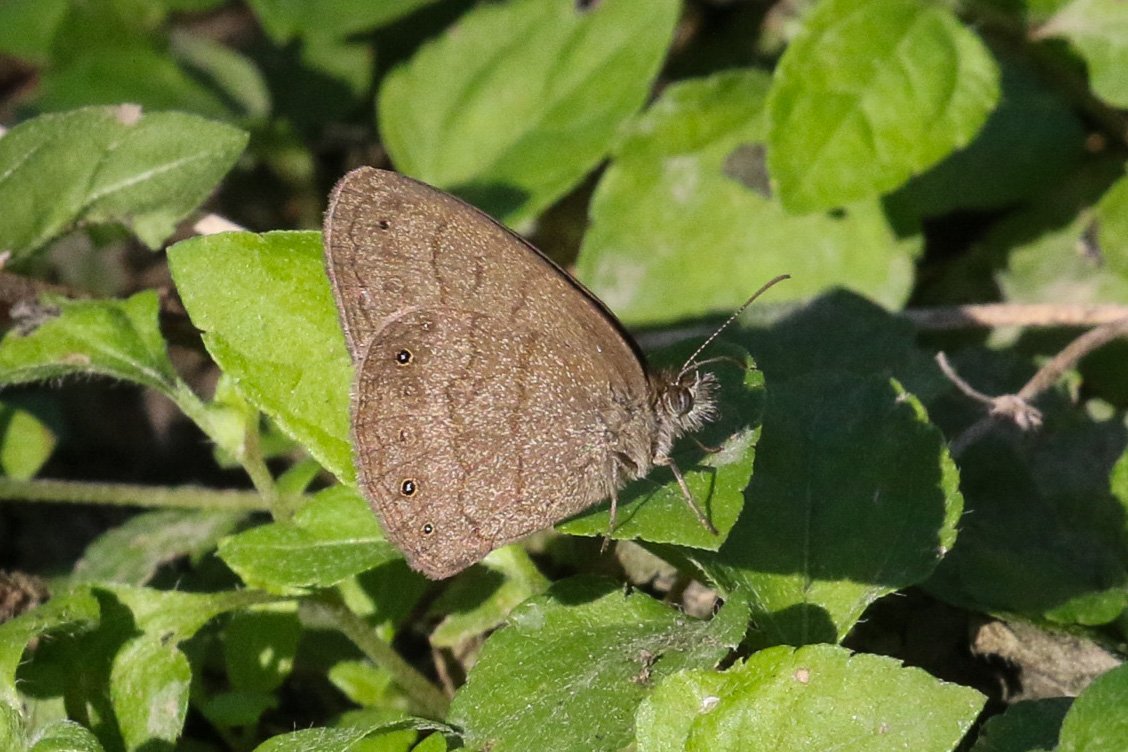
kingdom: Animalia
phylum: Arthropoda
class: Insecta
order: Lepidoptera
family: Nymphalidae
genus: Hermeuptychia
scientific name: Hermeuptychia hermybius
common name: South Texas Satyr
